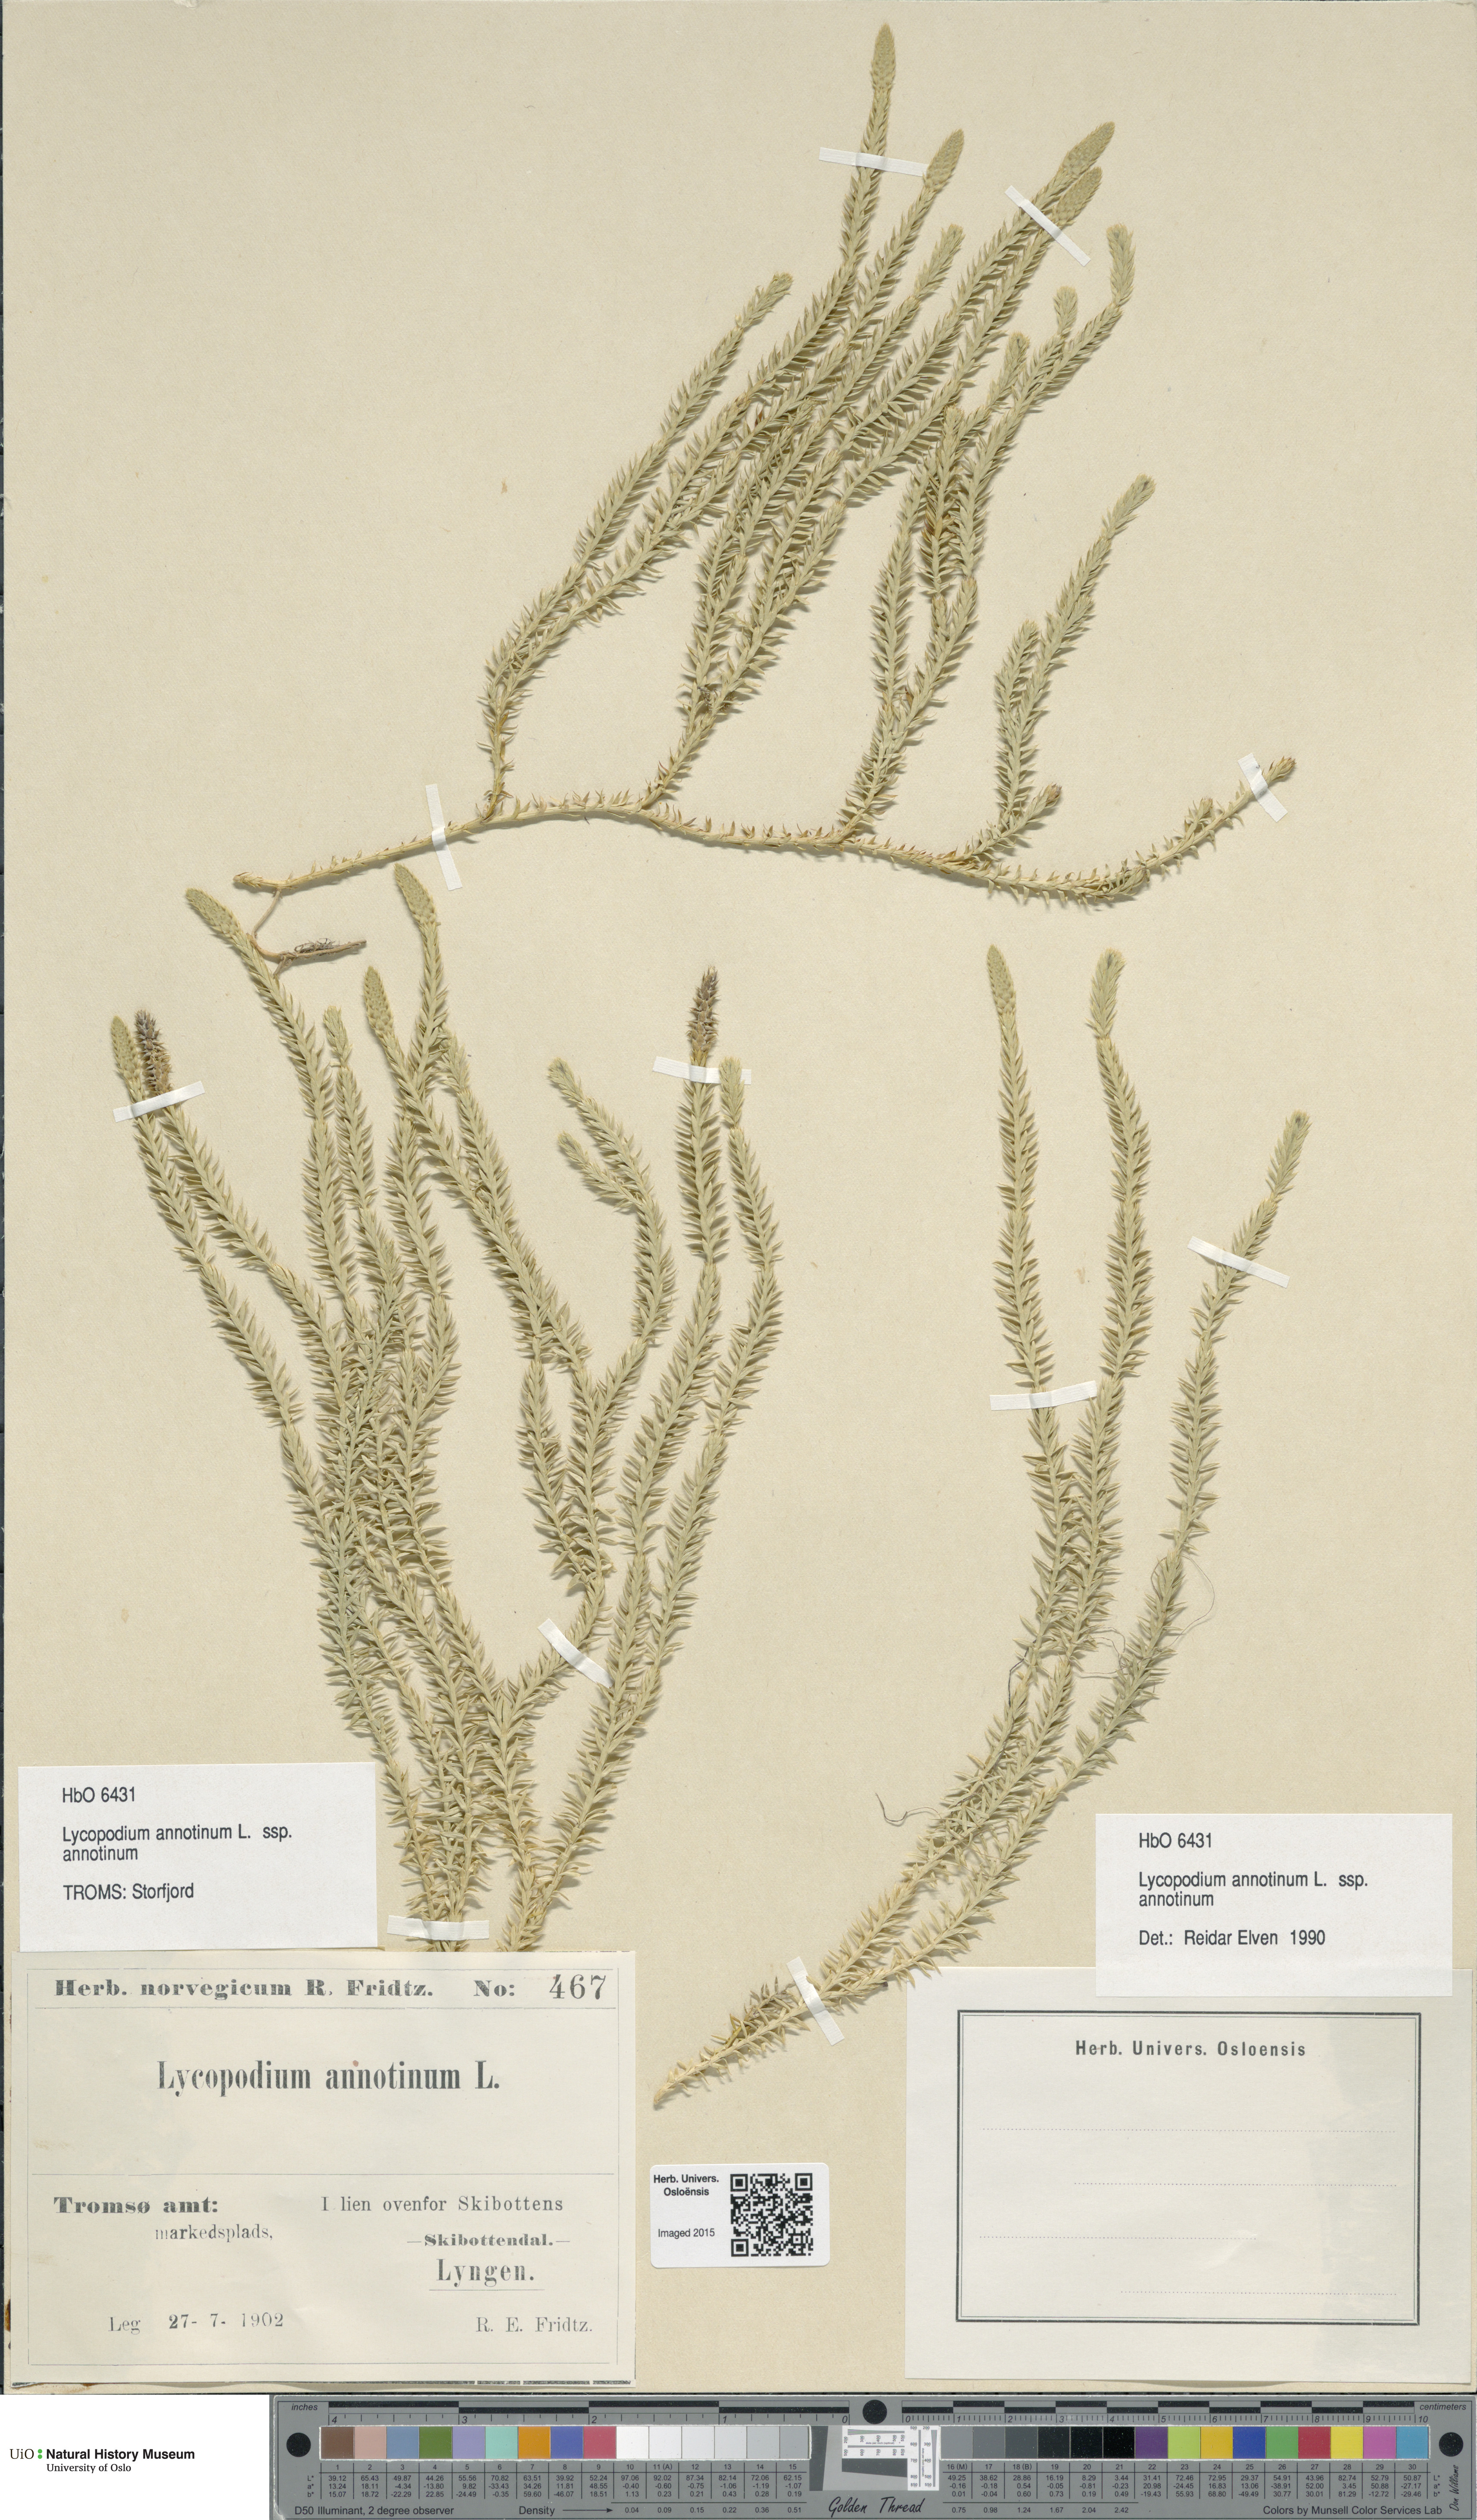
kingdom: Plantae
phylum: Tracheophyta
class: Lycopodiopsida
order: Lycopodiales
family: Lycopodiaceae
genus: Spinulum
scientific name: Spinulum annotinum
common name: Interrupted club-moss
